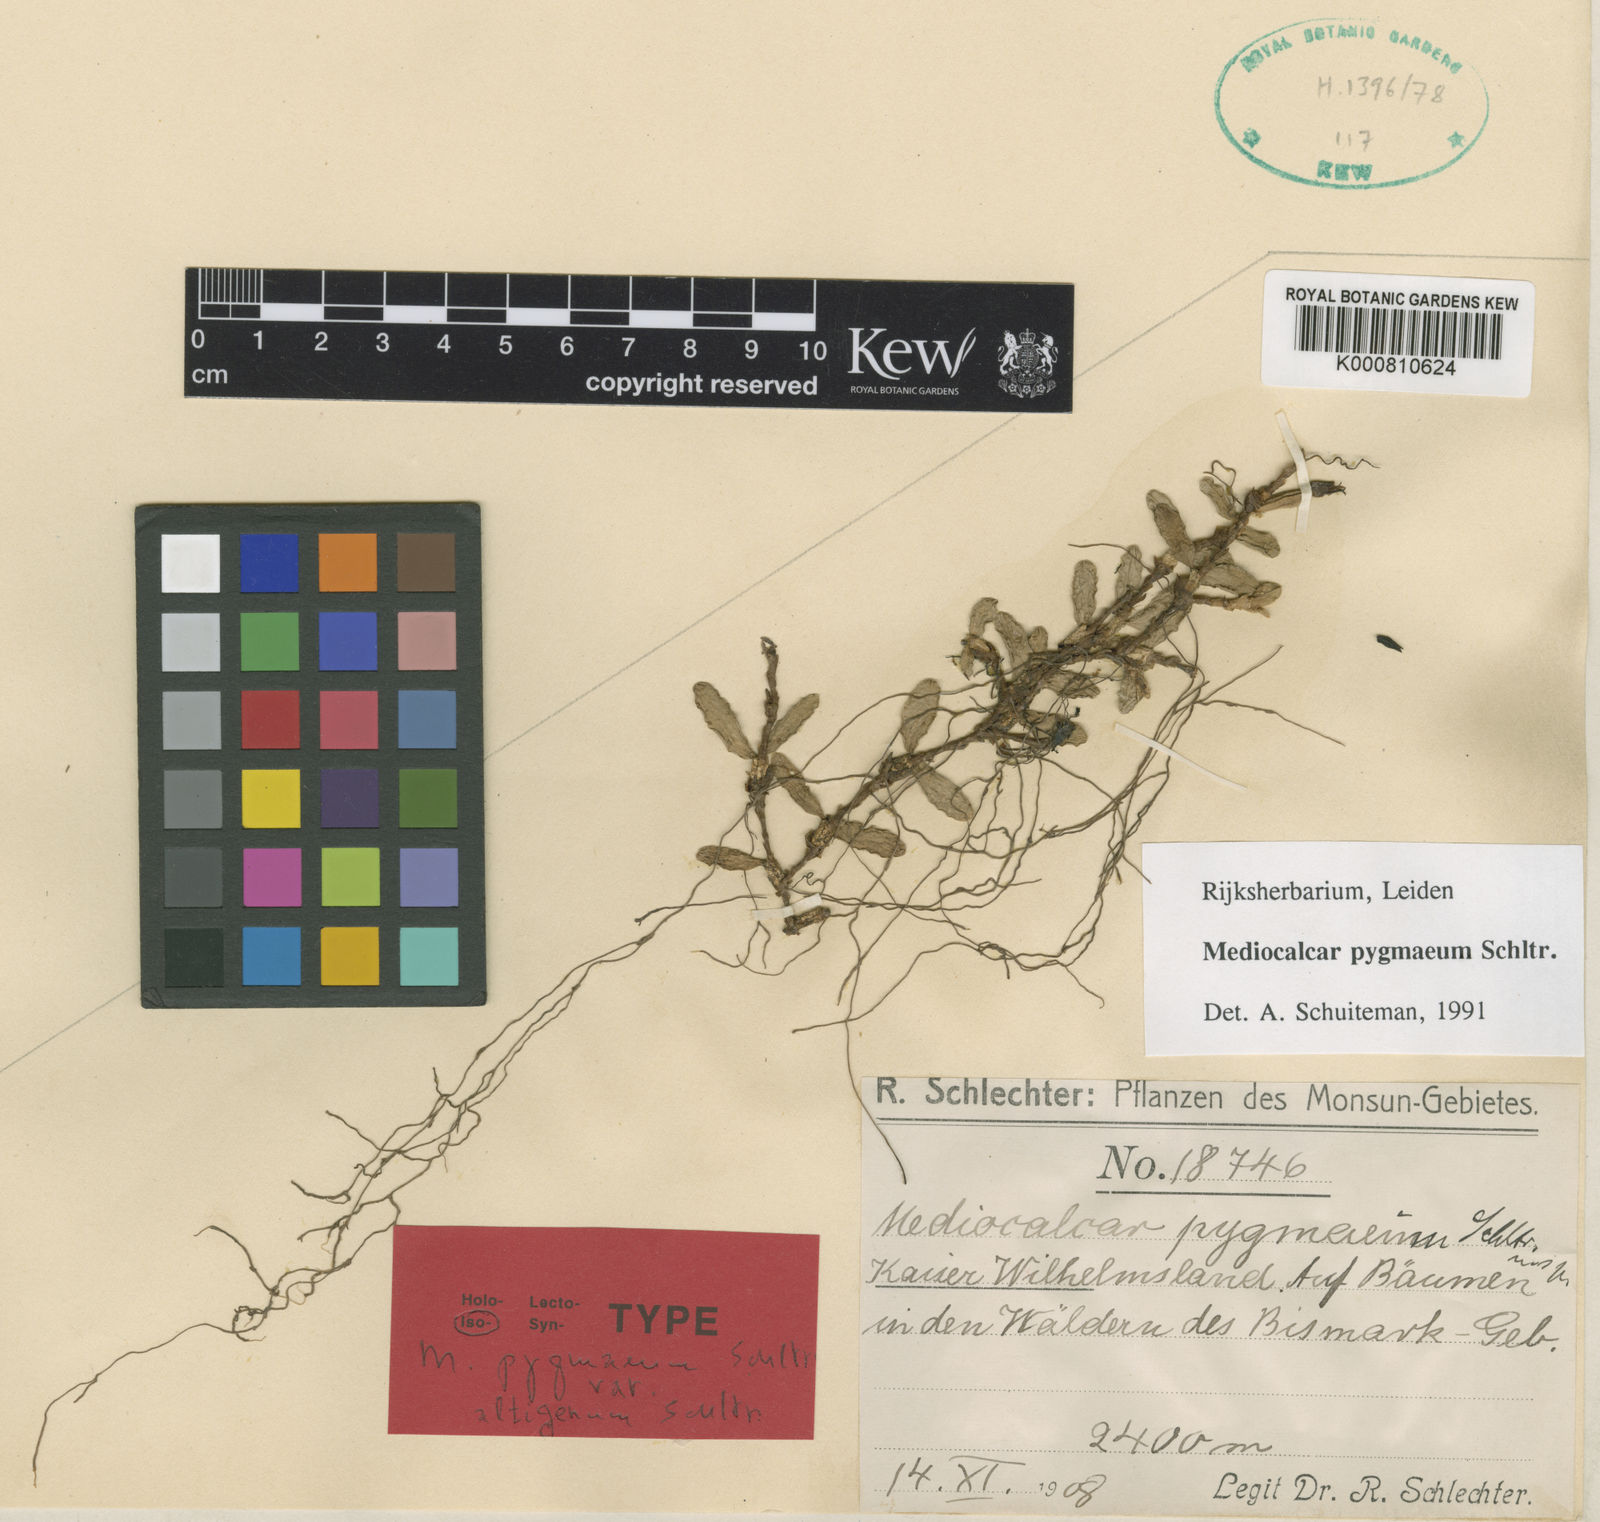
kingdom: Plantae
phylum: Tracheophyta
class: Liliopsida
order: Asparagales
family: Orchidaceae
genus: Mediocalcar
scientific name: Mediocalcar pygmaeum
